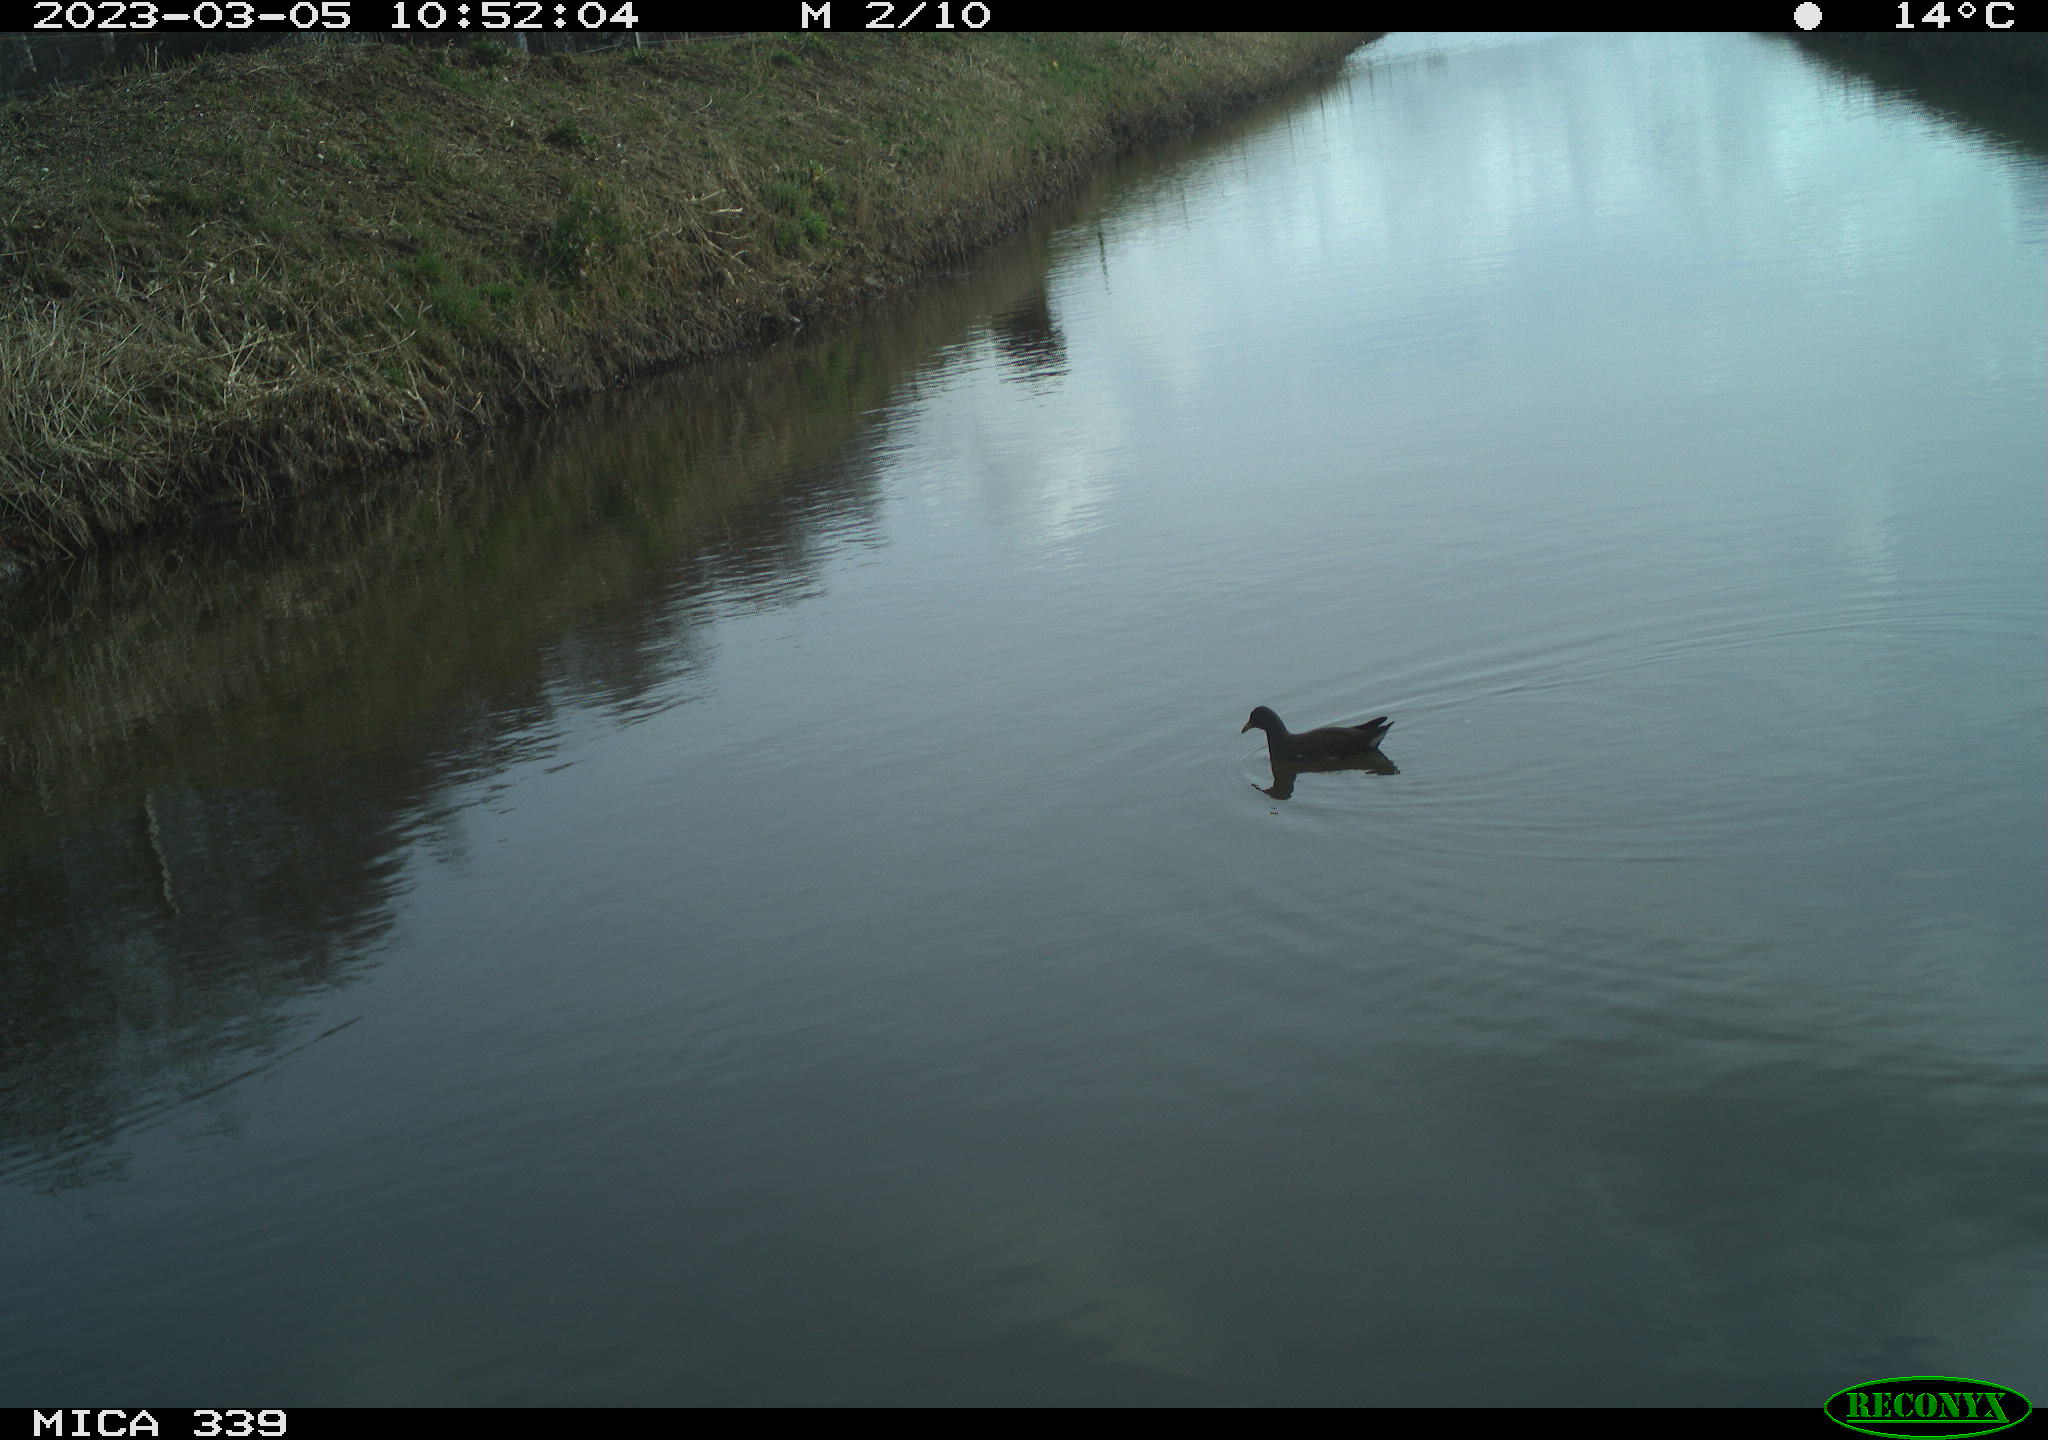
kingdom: Animalia
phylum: Chordata
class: Aves
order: Gruiformes
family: Rallidae
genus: Gallinula
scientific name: Gallinula chloropus
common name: Common moorhen
